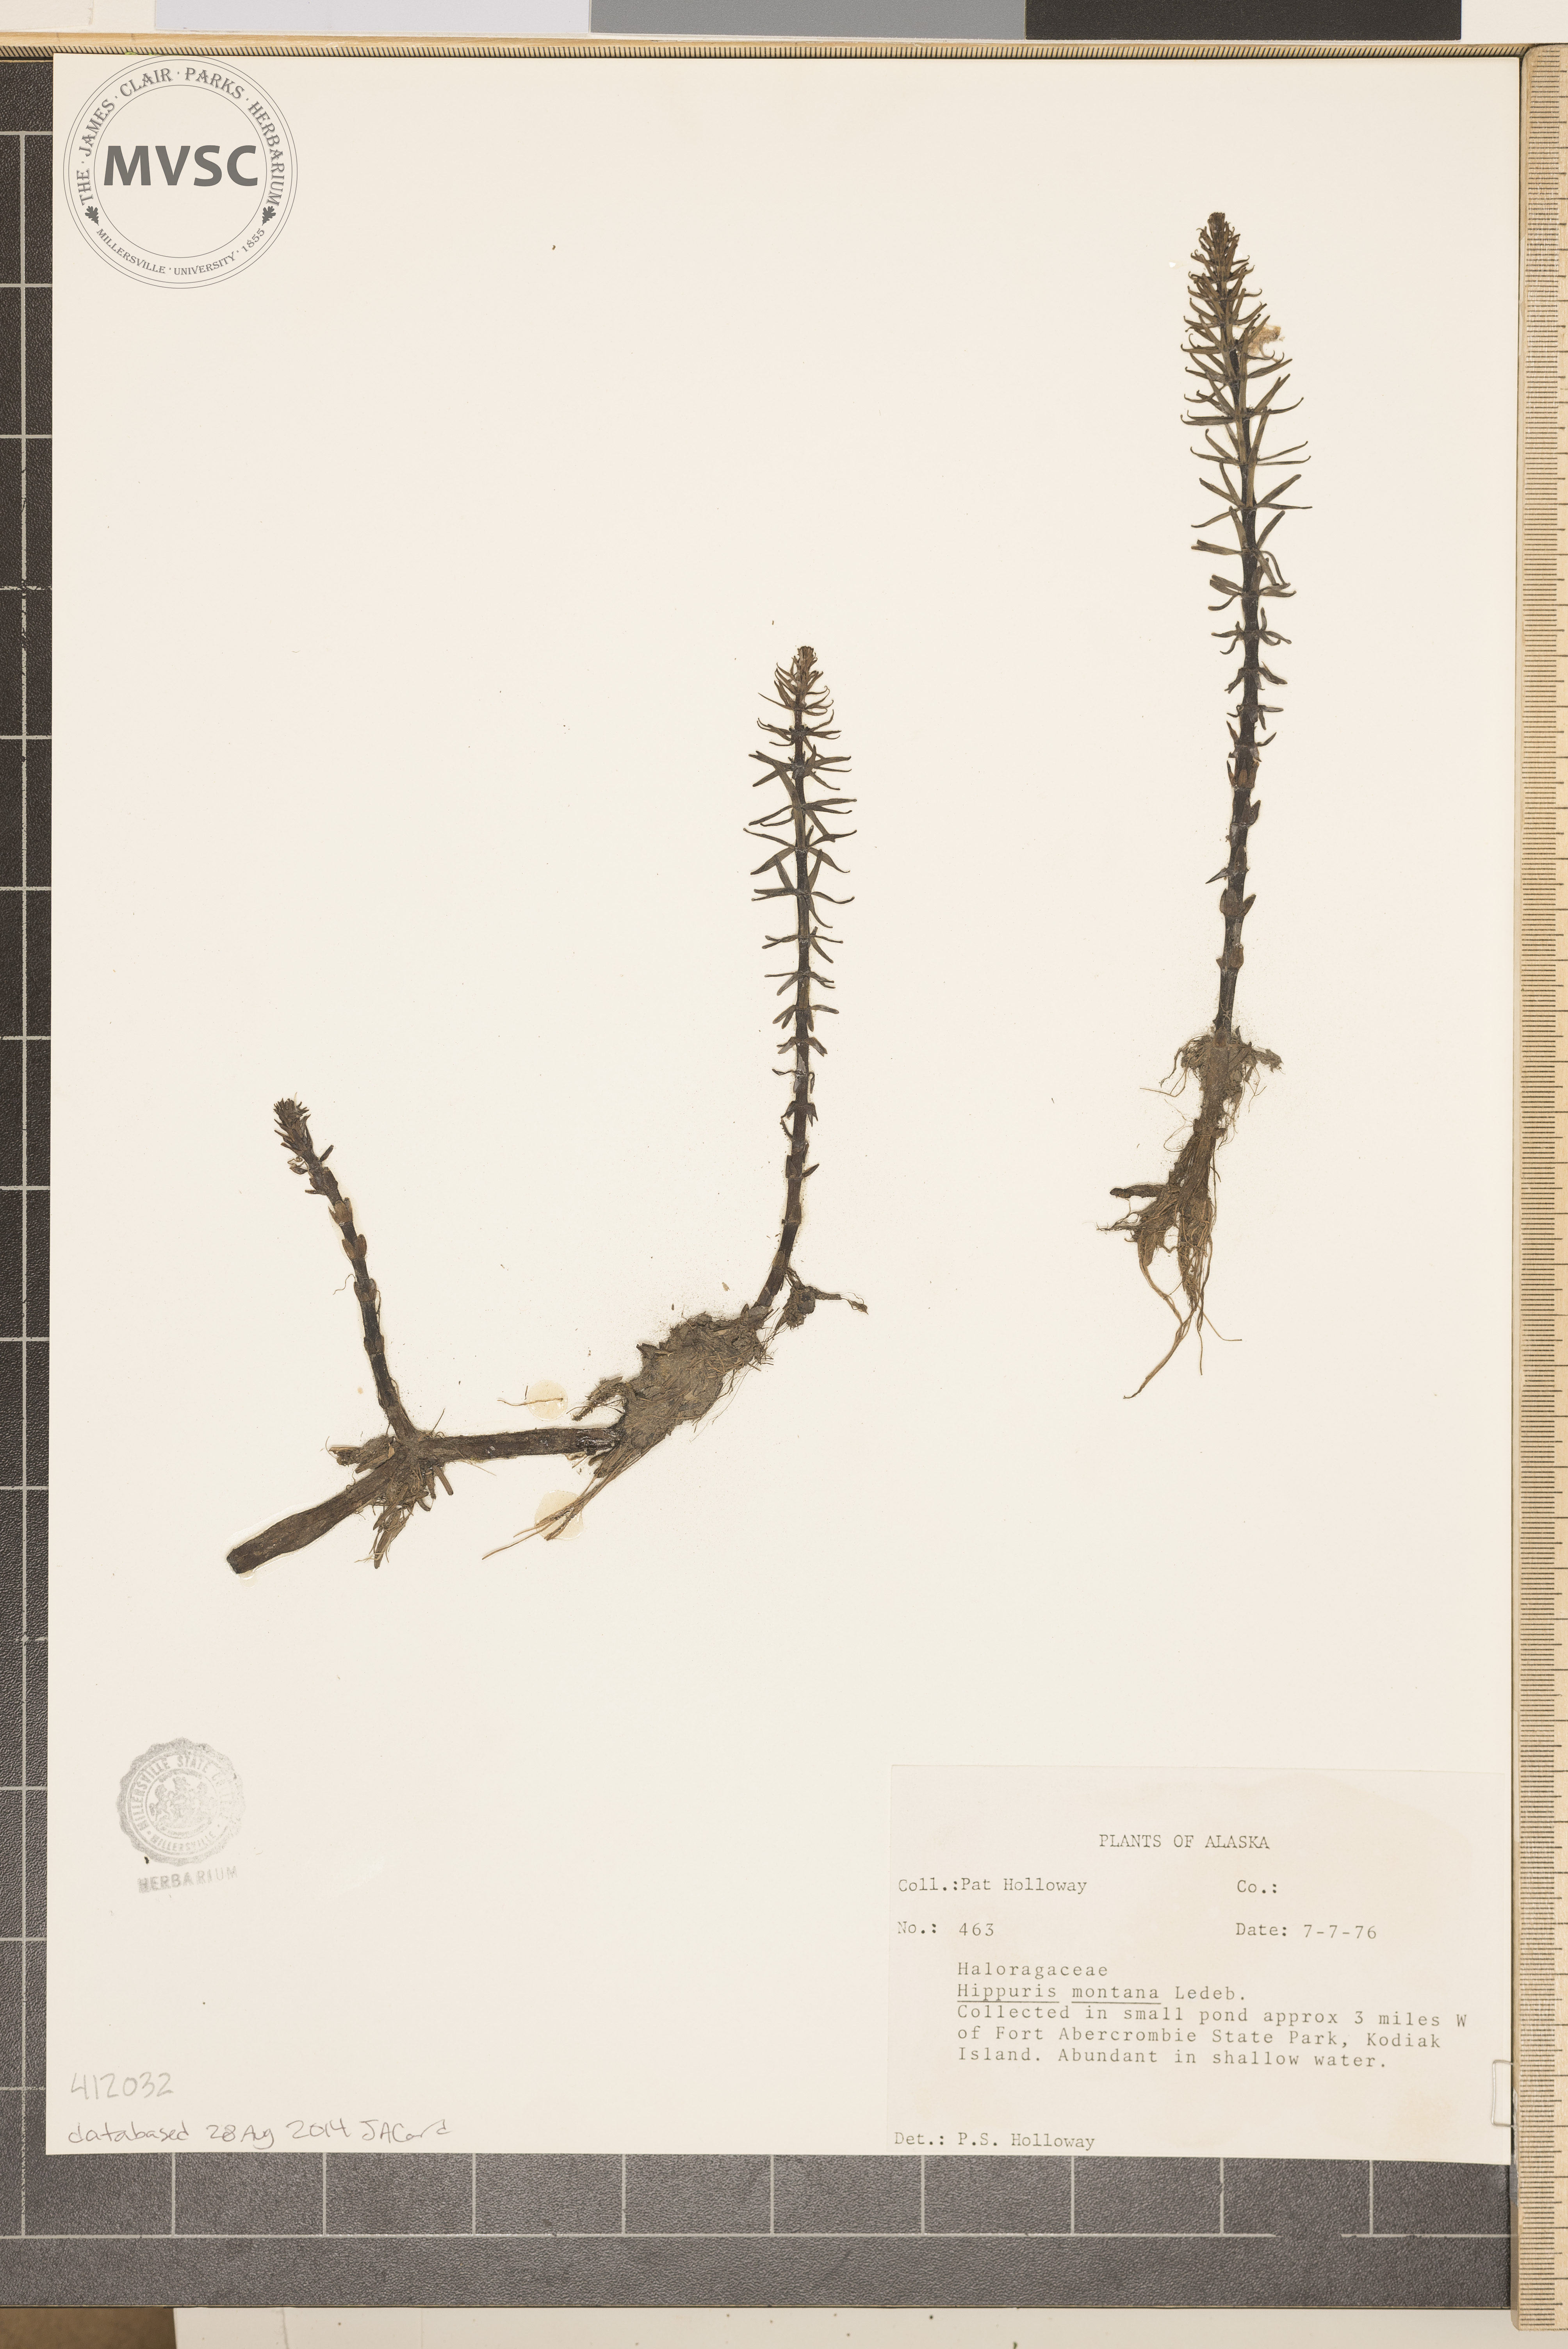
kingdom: Plantae
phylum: Tracheophyta
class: Magnoliopsida
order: Lamiales
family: Plantaginaceae
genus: Hippuris
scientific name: Hippuris montana
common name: Mountain mare's-tail
